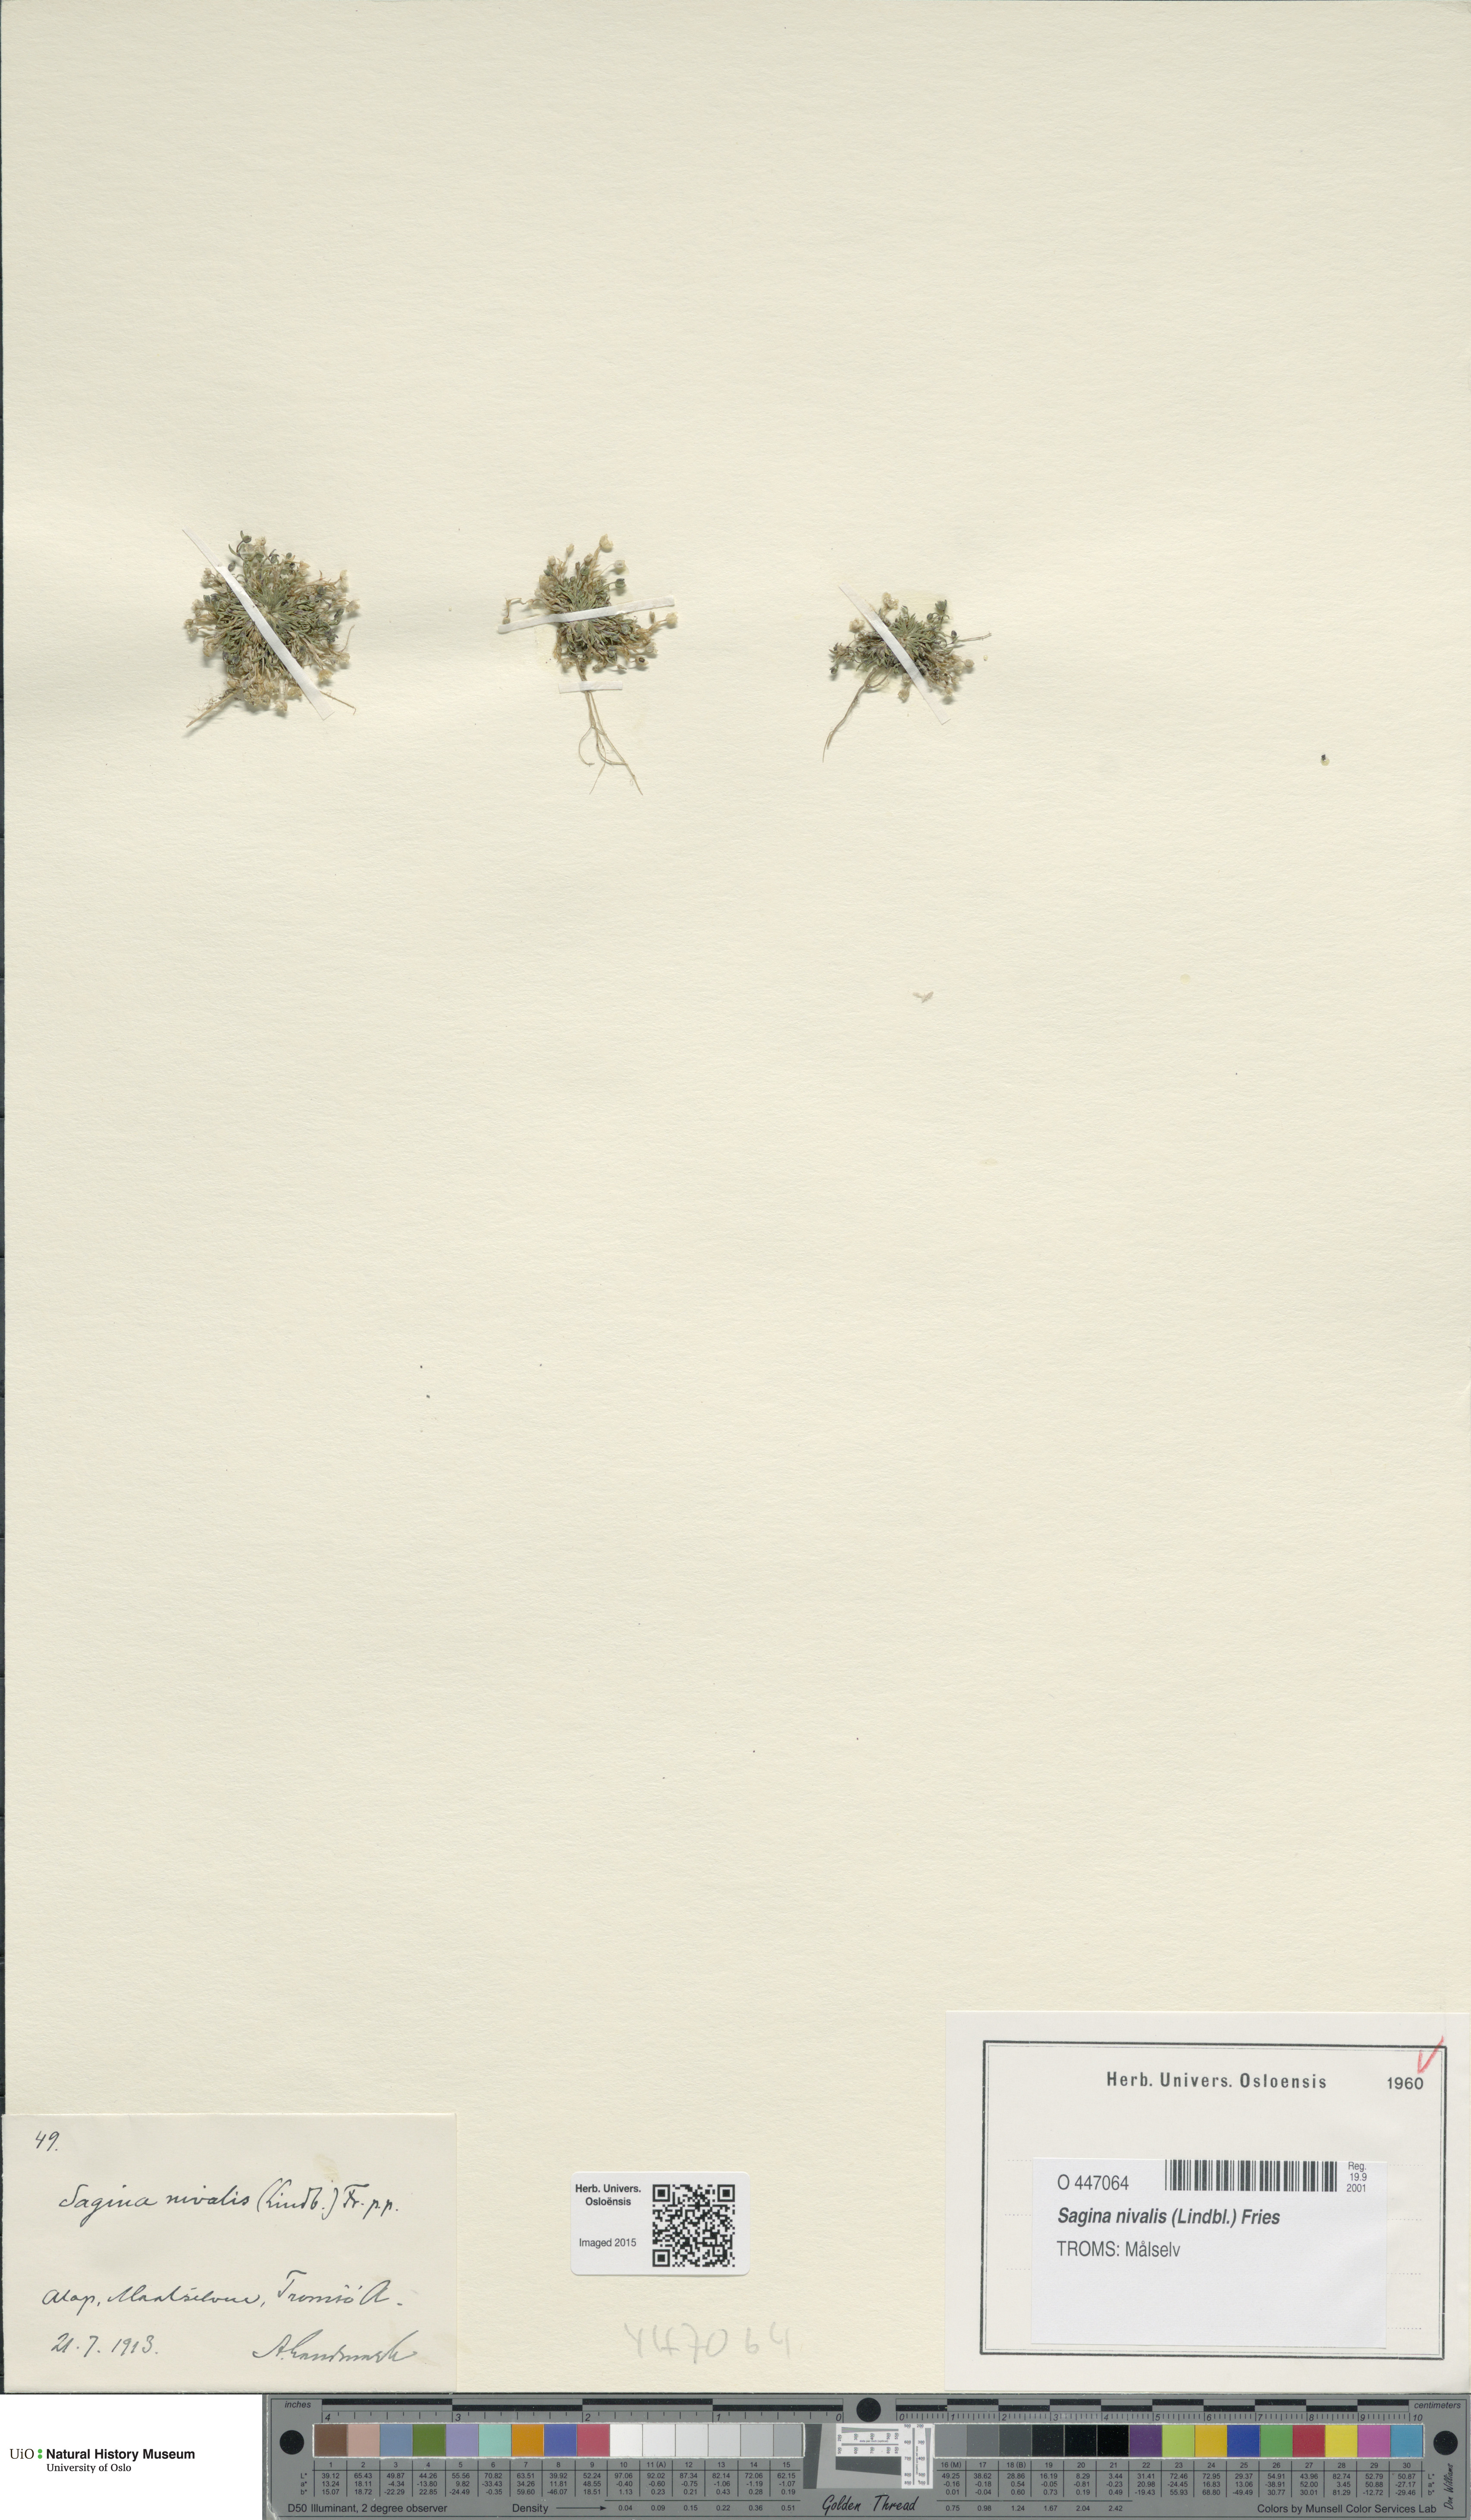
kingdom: Plantae
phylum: Tracheophyta
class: Magnoliopsida
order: Caryophyllales
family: Caryophyllaceae
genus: Sagina
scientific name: Sagina nivalis
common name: Snow pearlwort
